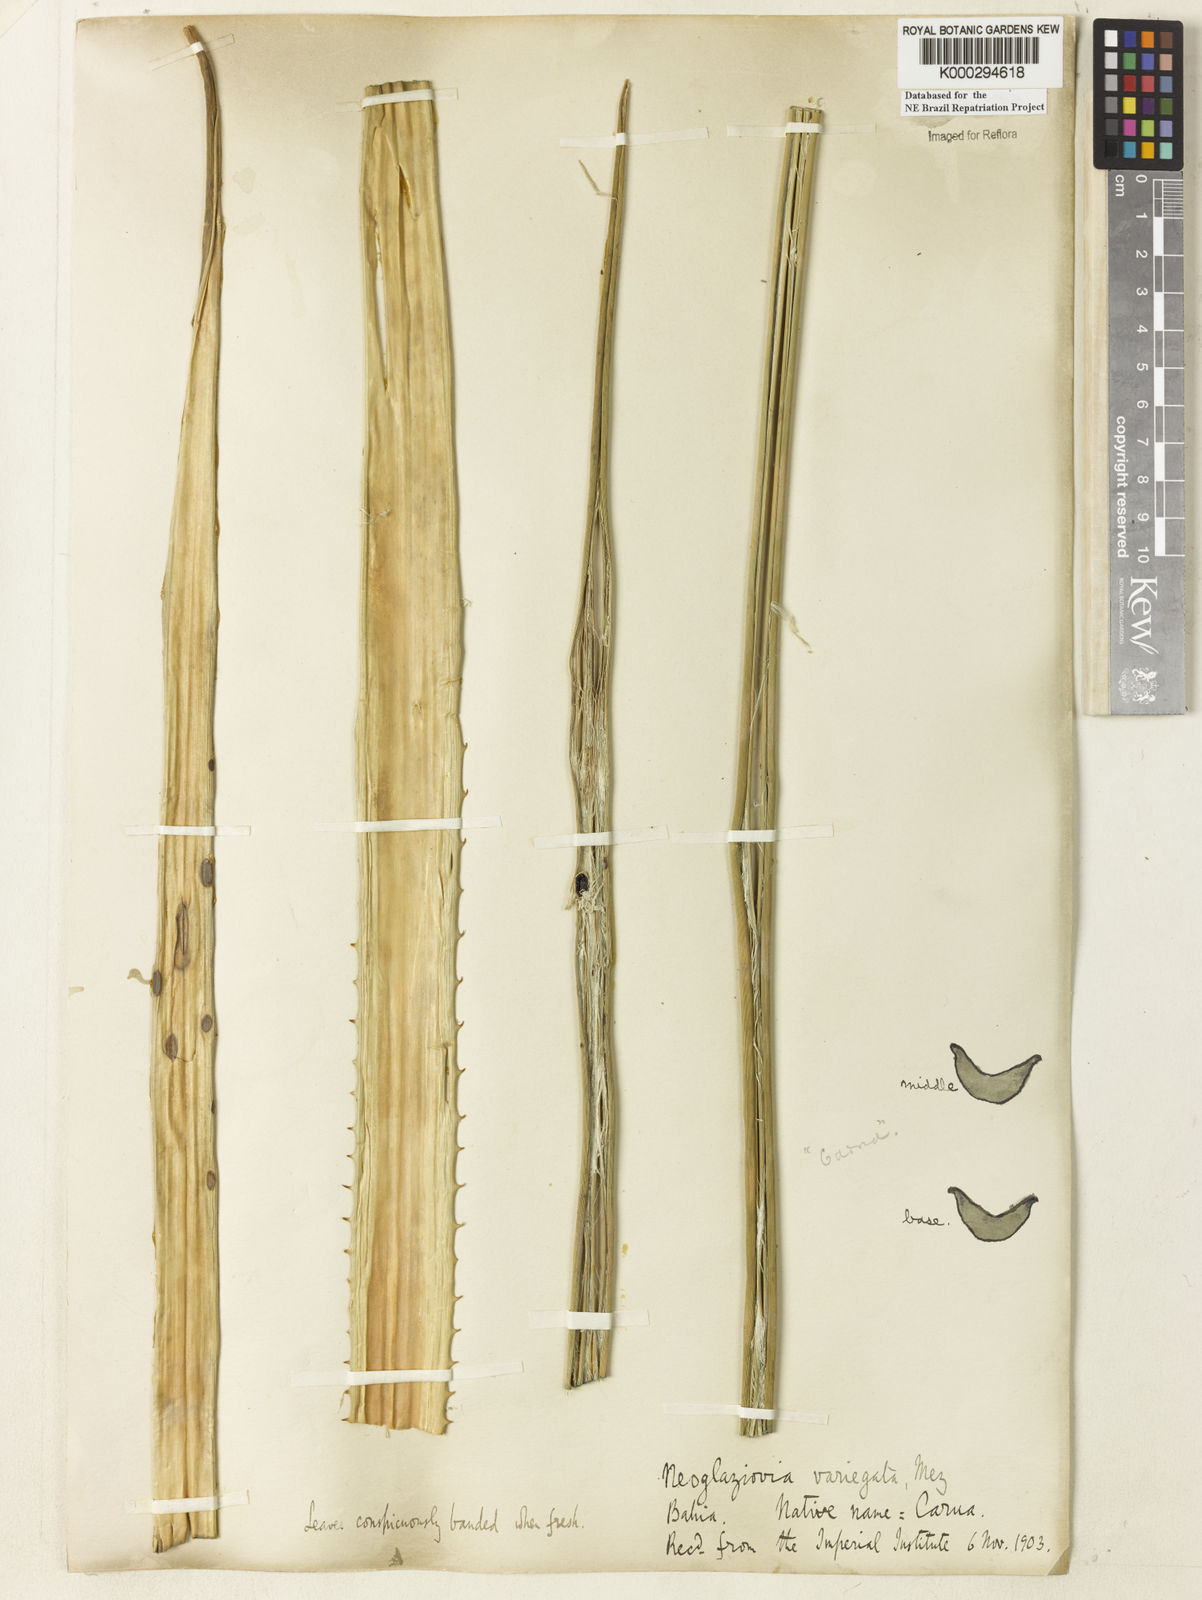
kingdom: Plantae
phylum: Tracheophyta
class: Liliopsida
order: Poales
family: Bromeliaceae
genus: Neoglaziovia
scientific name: Neoglaziovia variegata
